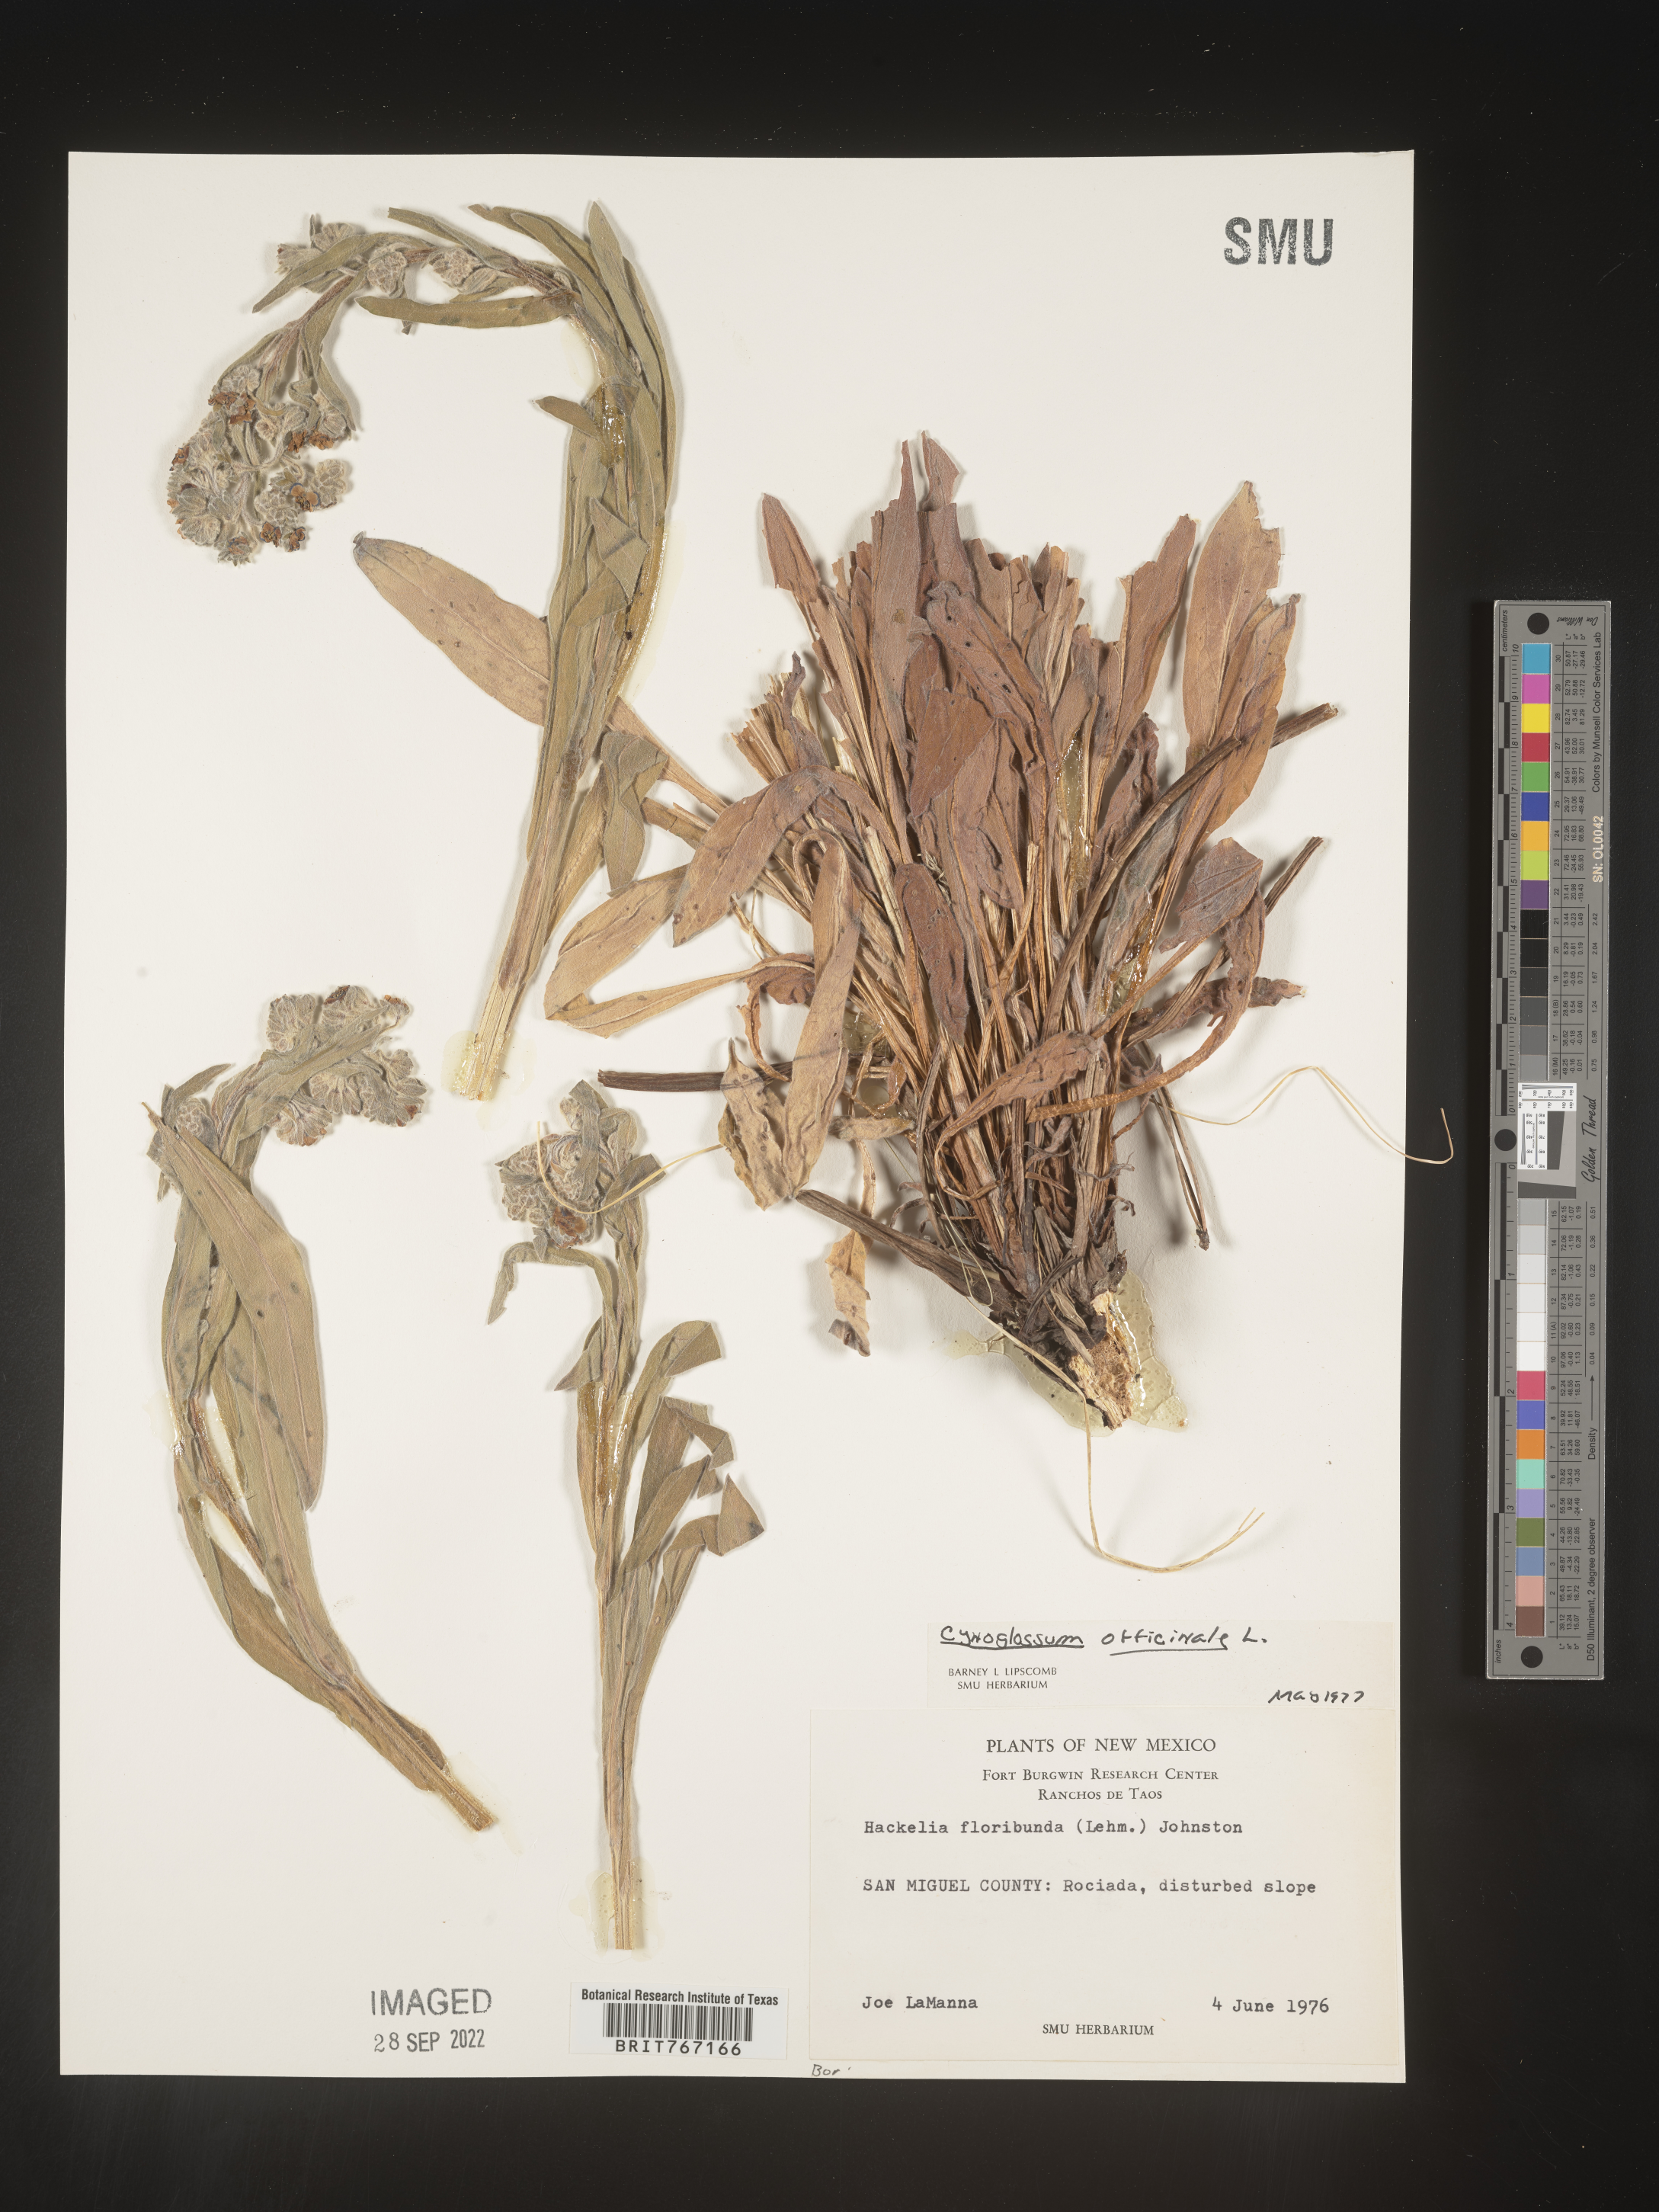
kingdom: Plantae
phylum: Tracheophyta
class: Magnoliopsida
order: Boraginales
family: Boraginaceae
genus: Cynoglossum
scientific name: Cynoglossum officinale
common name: Hound's-tongue
